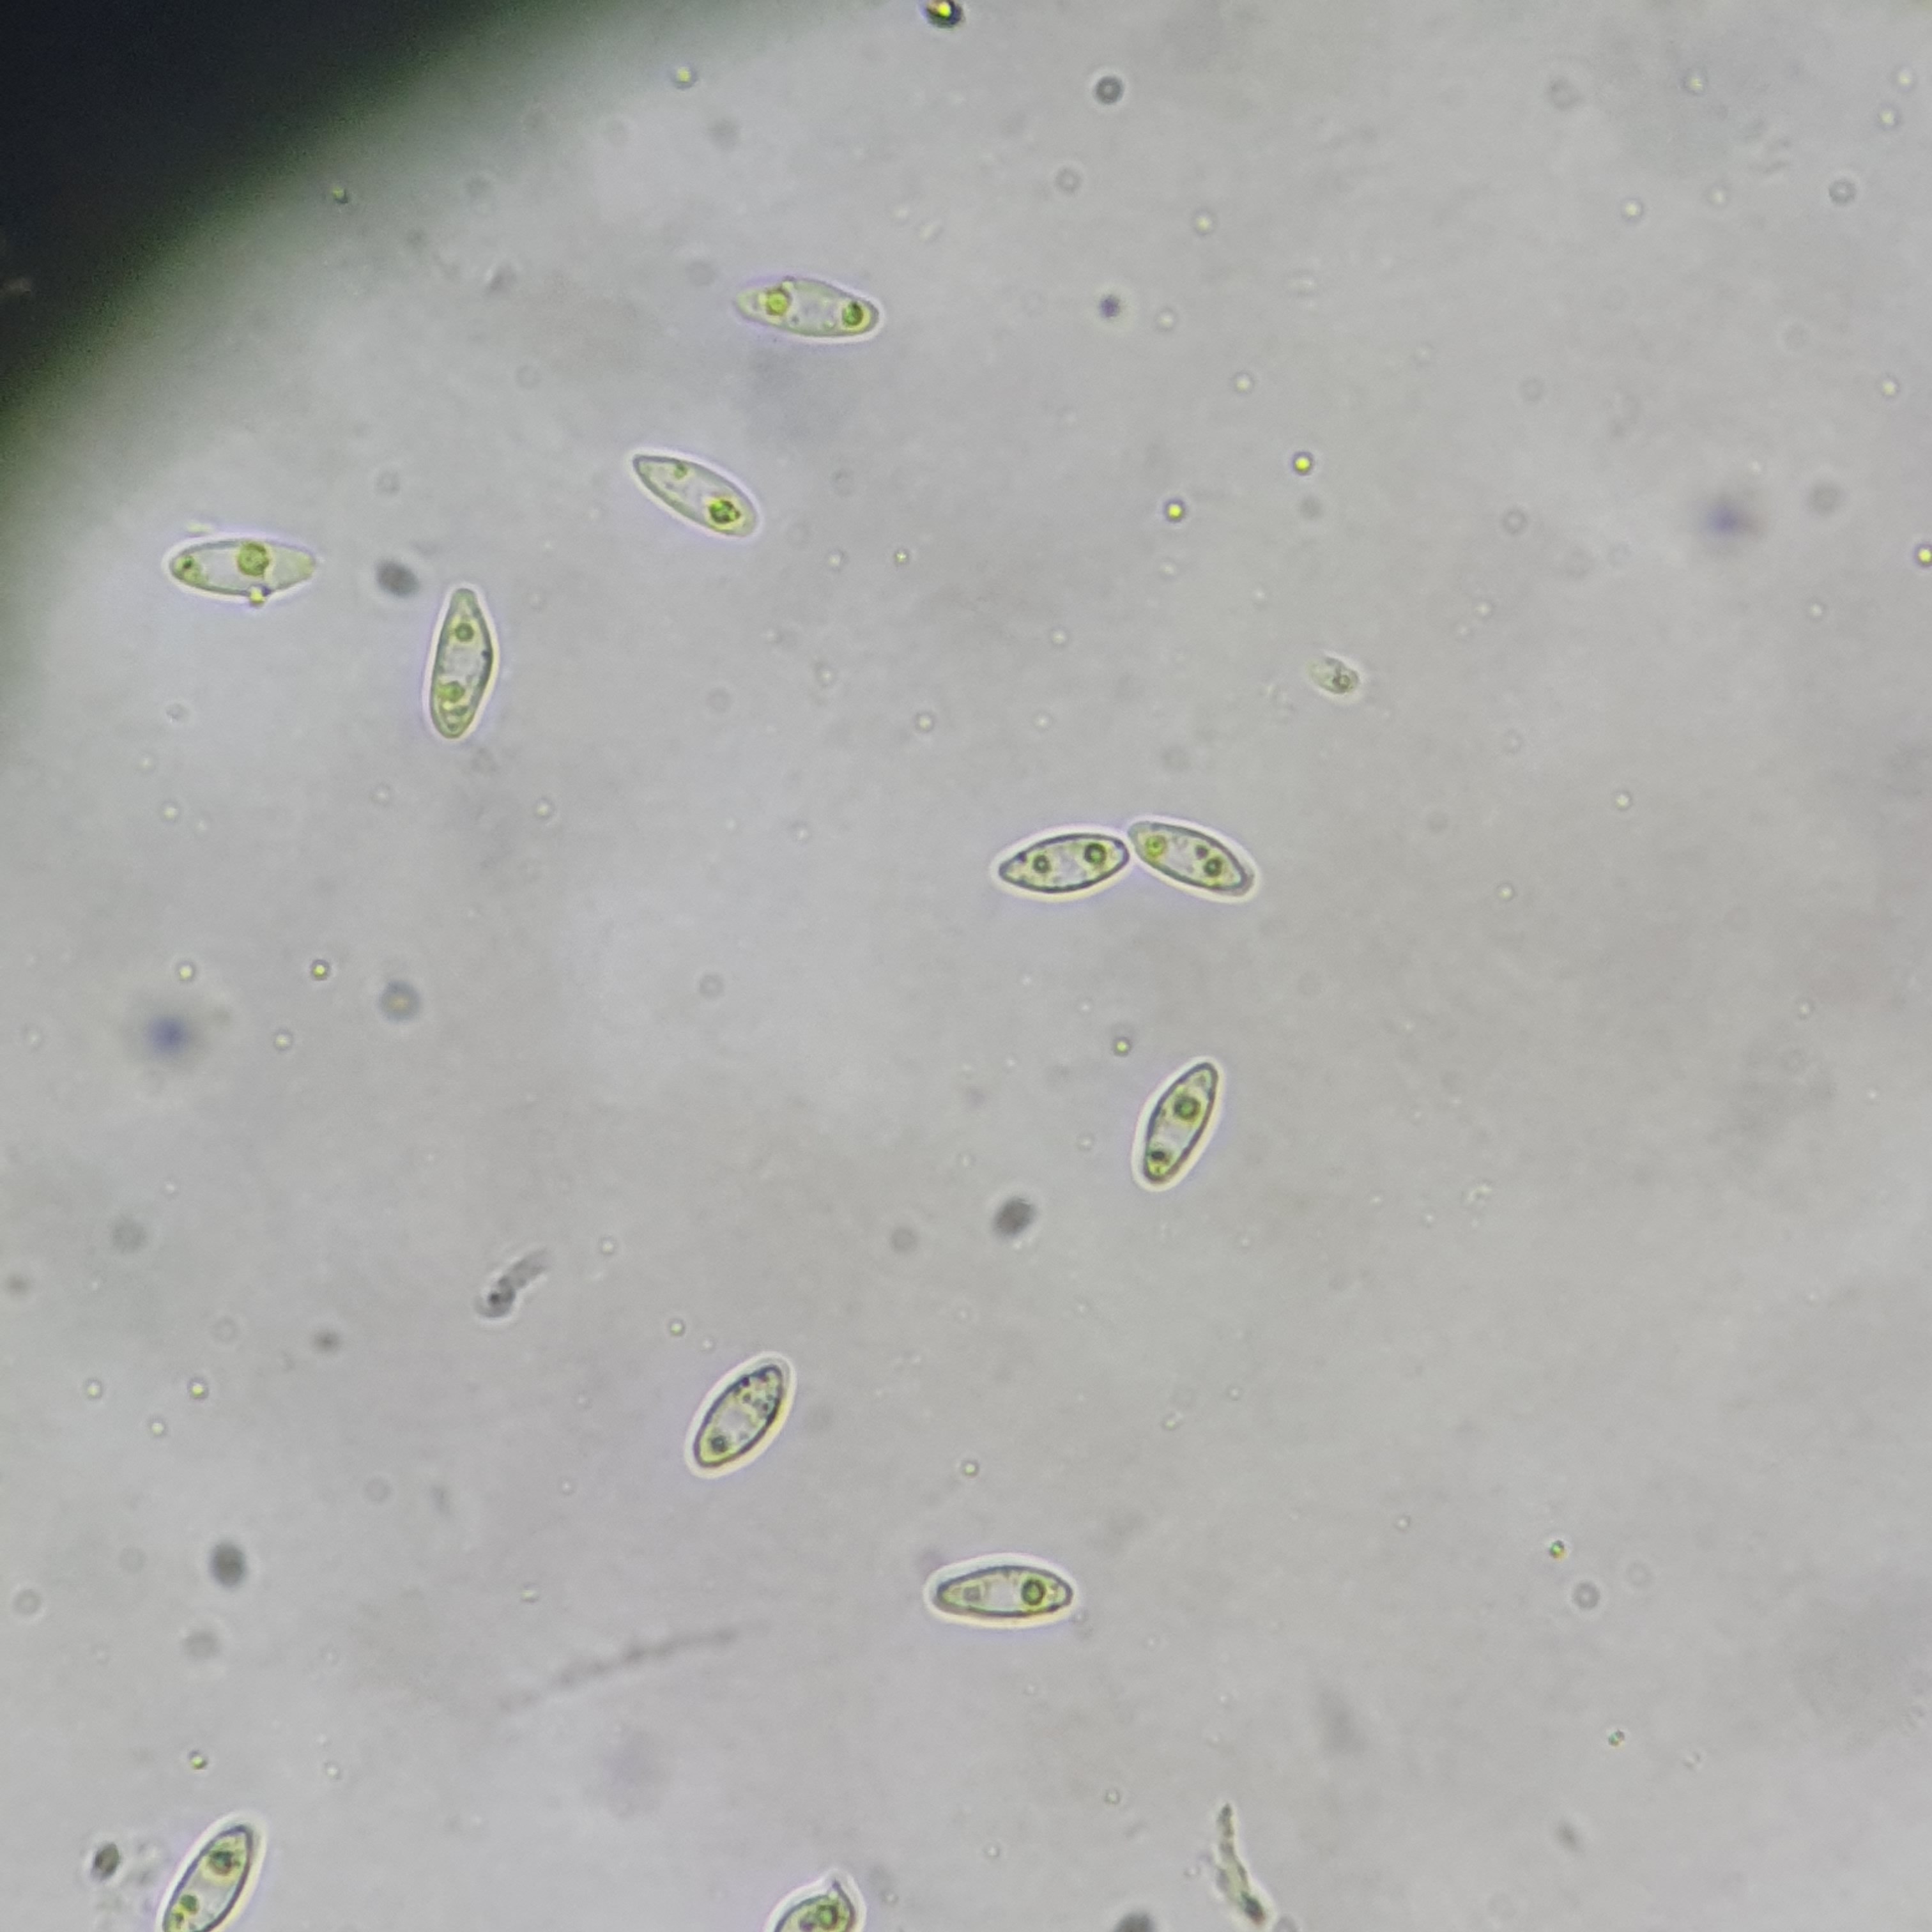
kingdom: Fungi
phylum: Ascomycota
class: Sordariomycetes
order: Diaporthales
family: Diaporthaceae
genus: Diaporthe
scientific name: Diaporthe cryptica
